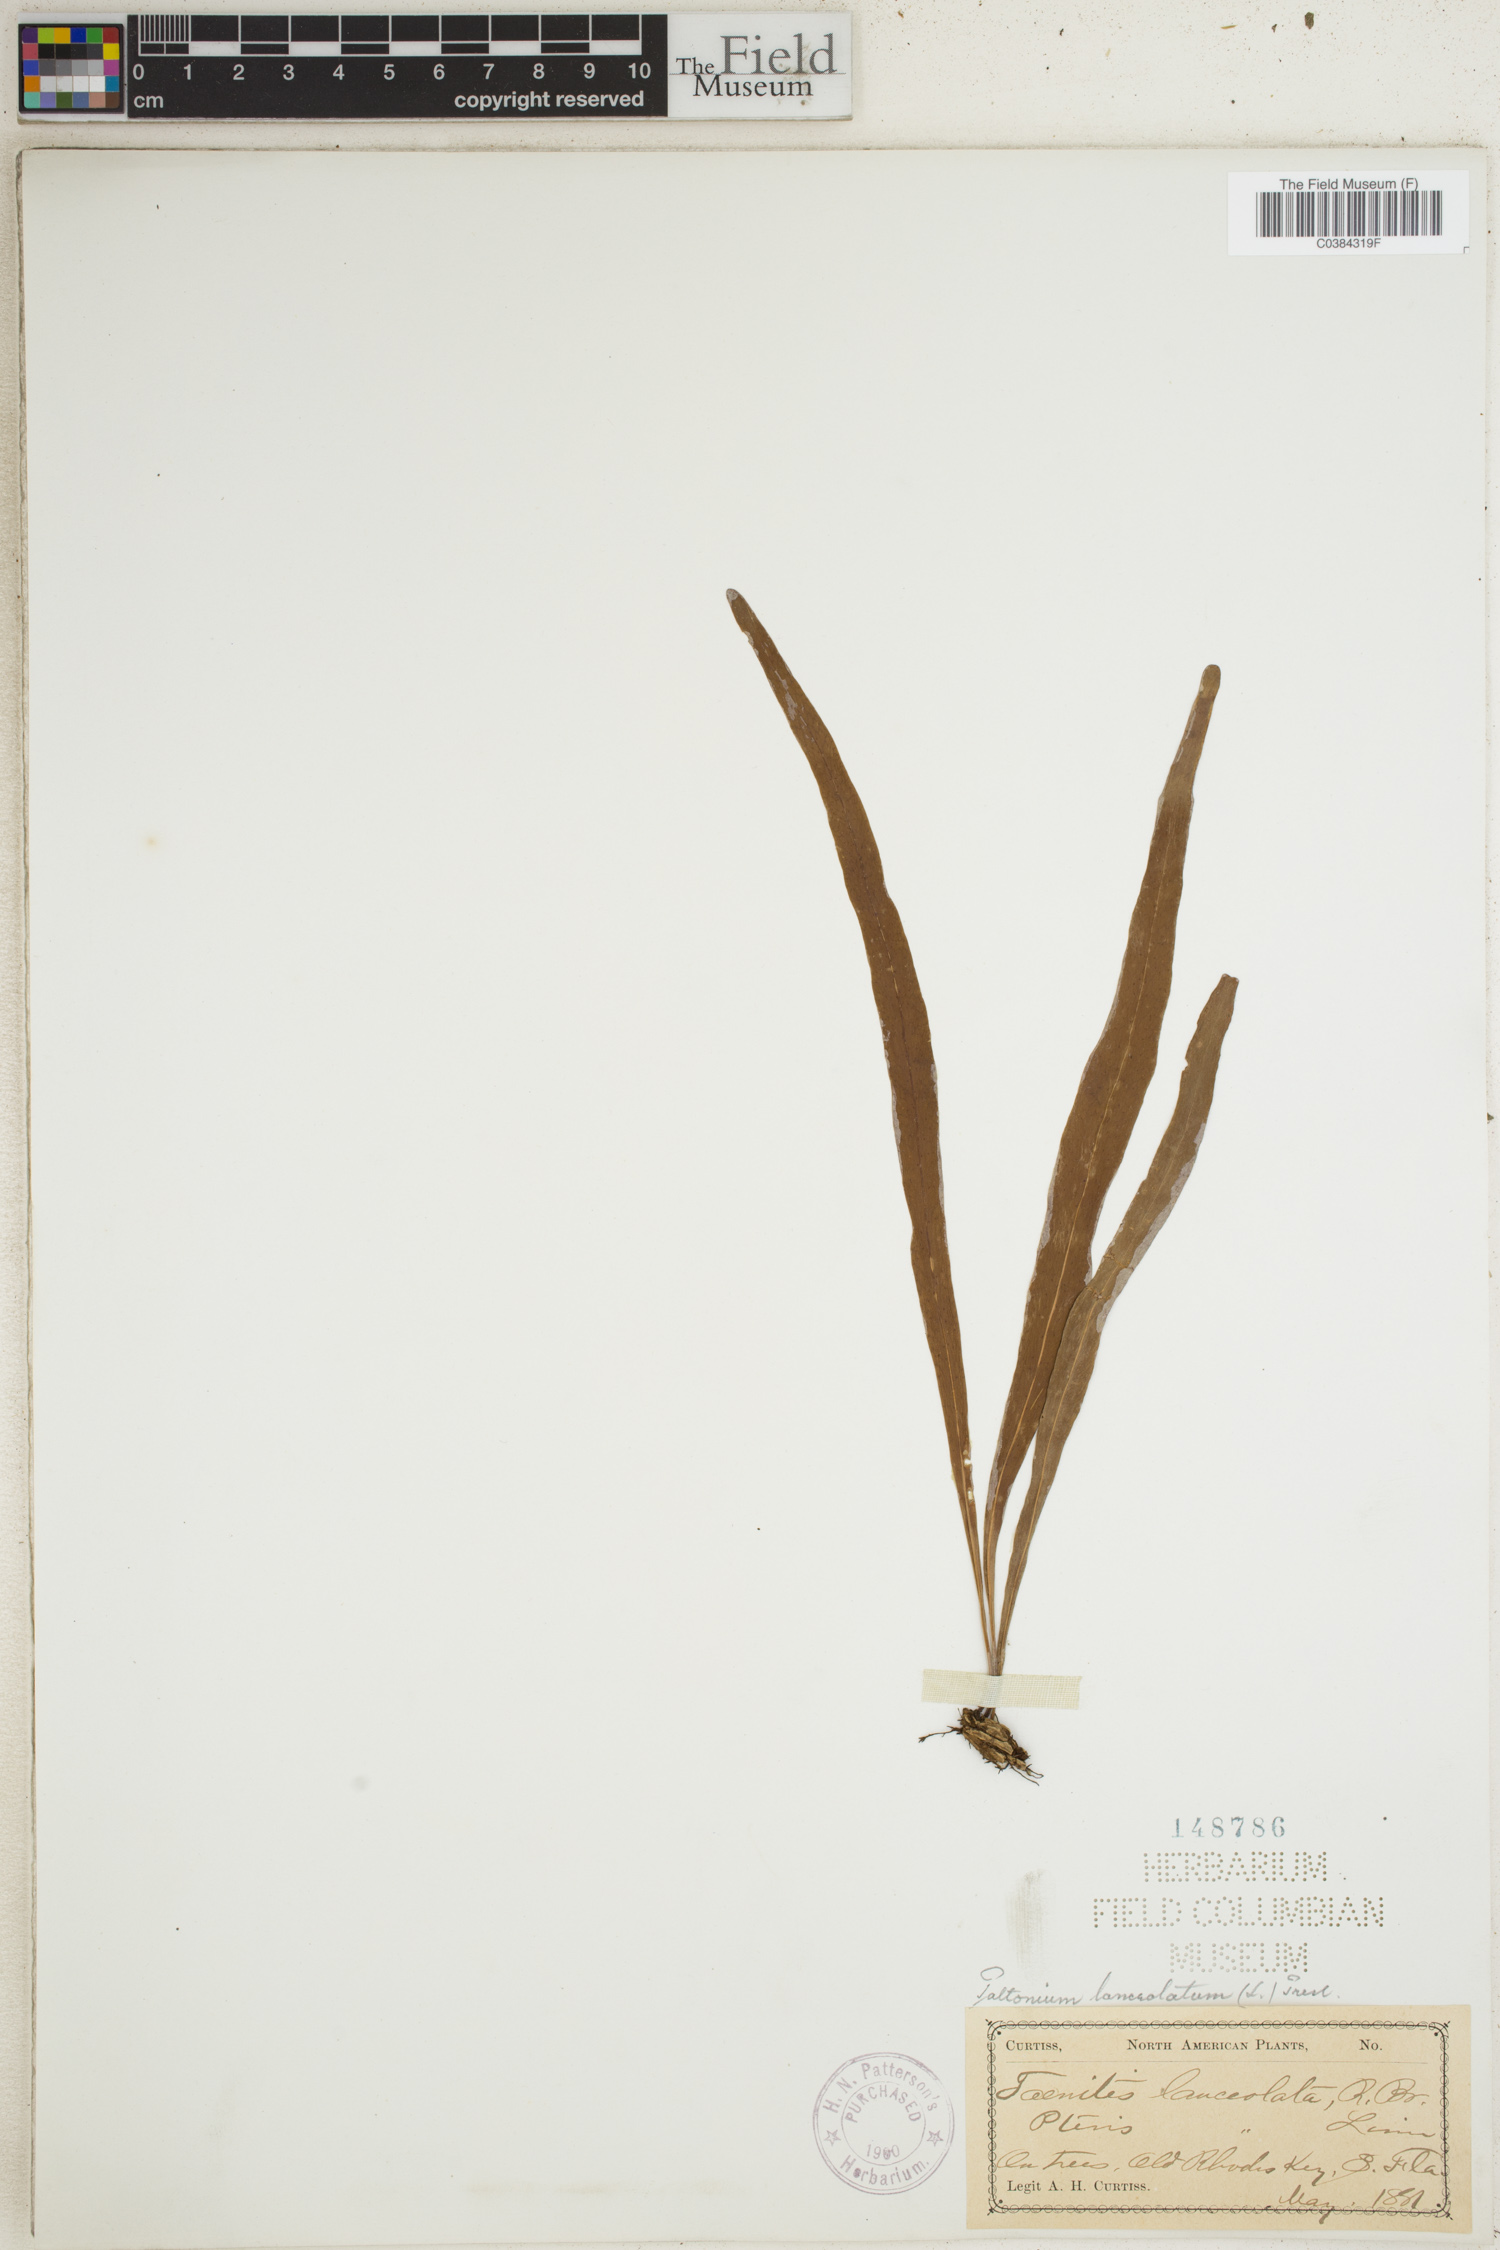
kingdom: Plantae
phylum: Tracheophyta
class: Polypodiopsida
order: Polypodiales
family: Polypodiaceae
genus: Pleopeltis
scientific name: Pleopeltis marginata
